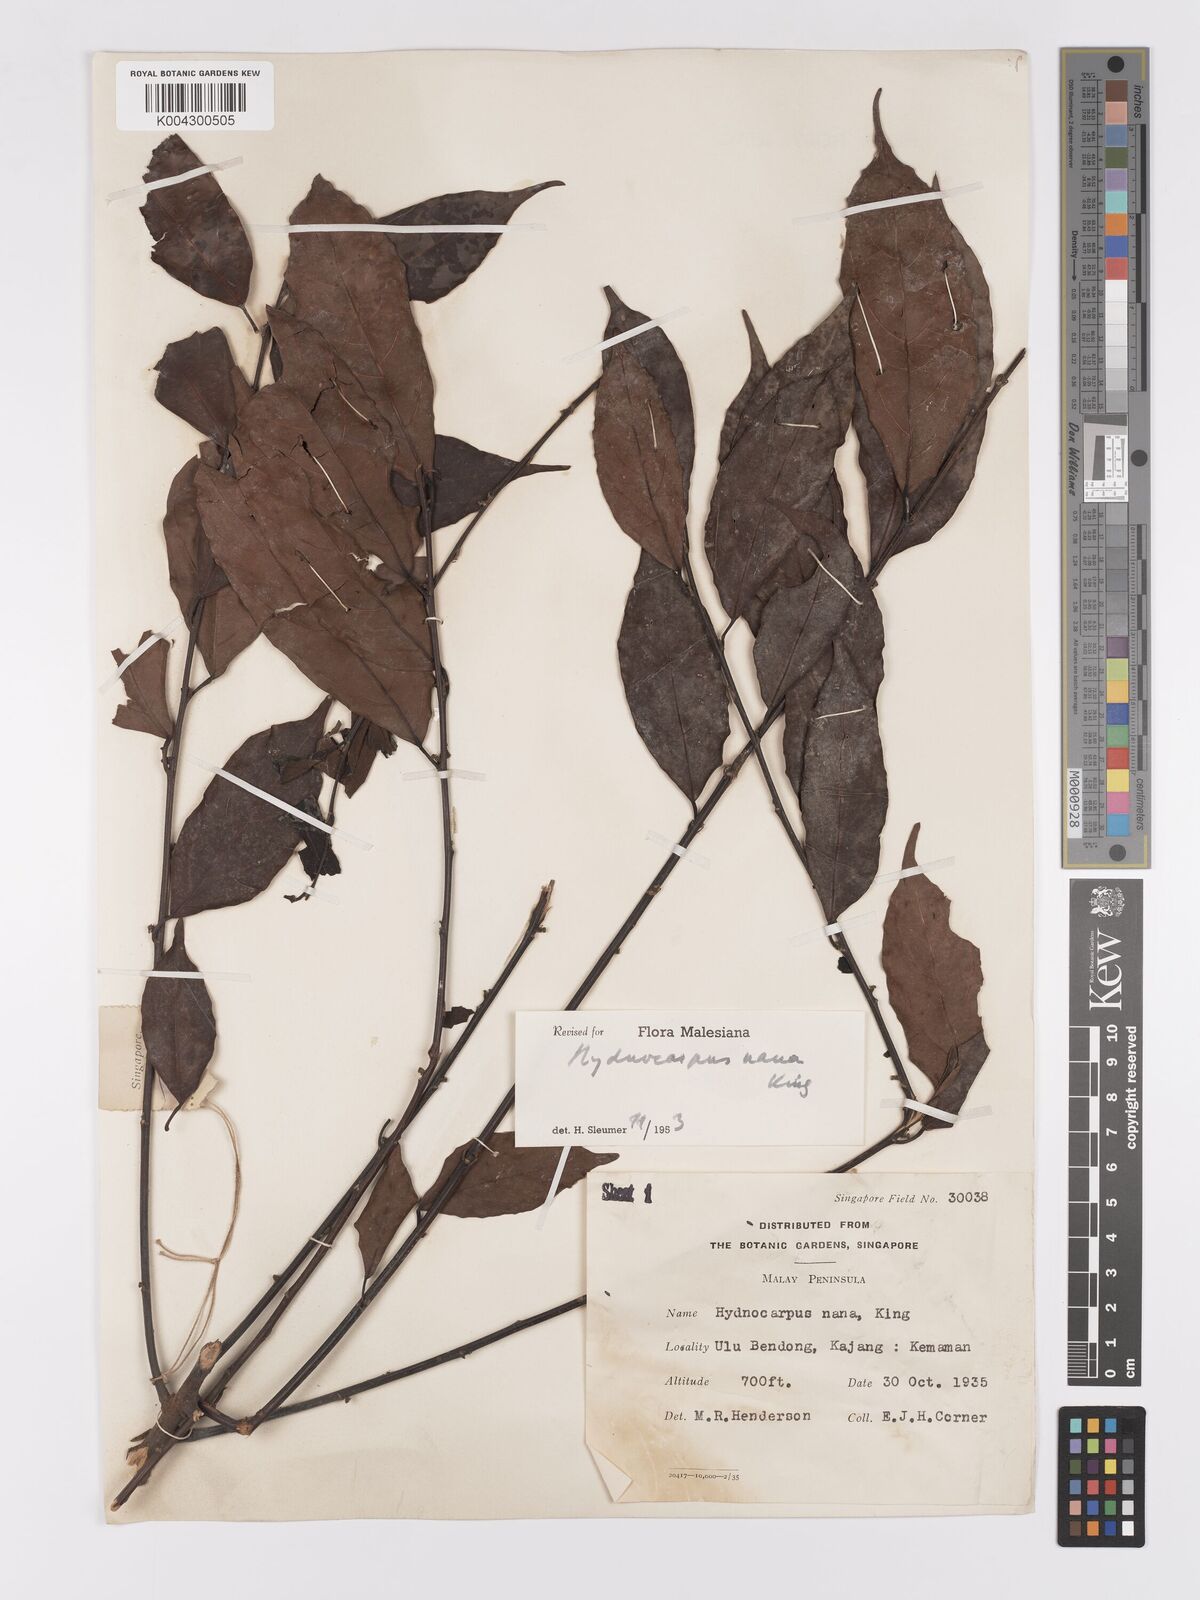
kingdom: Plantae
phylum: Tracheophyta
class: Magnoliopsida
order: Malpighiales
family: Achariaceae
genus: Hydnocarpus
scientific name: Hydnocarpus nanus
